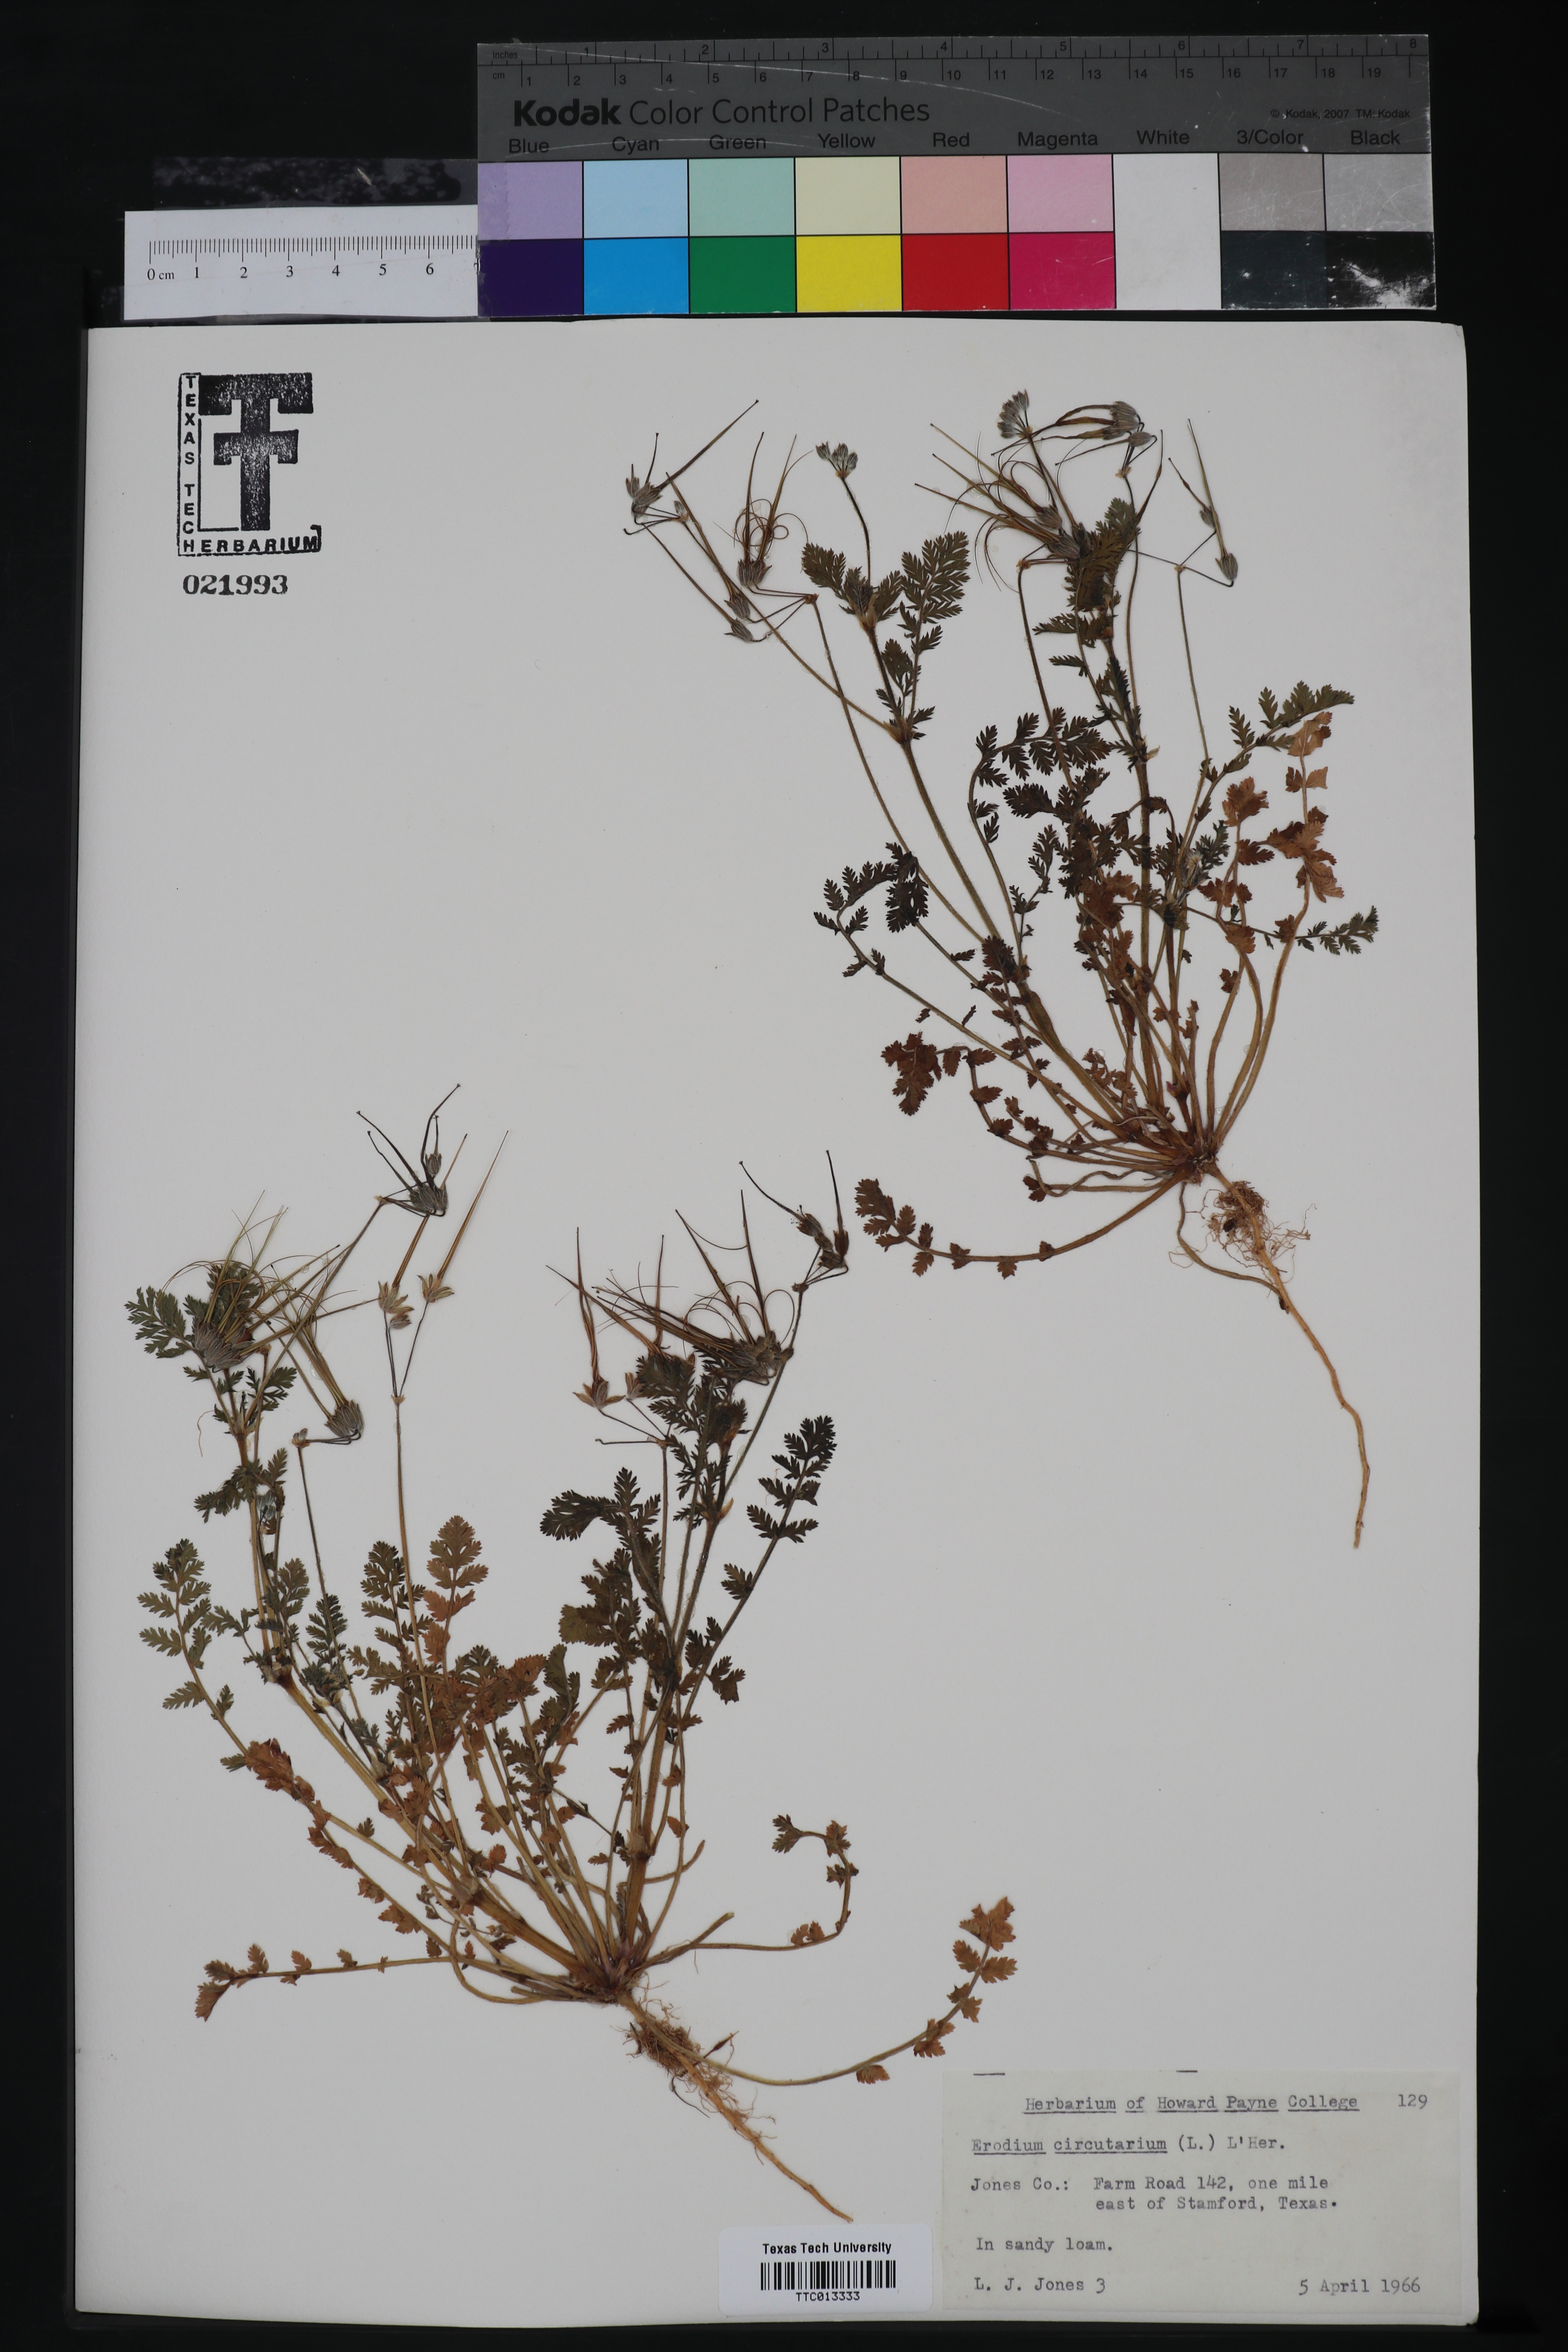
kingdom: Plantae
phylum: Tracheophyta
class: Magnoliopsida
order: Geraniales
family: Geraniaceae
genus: Erodium
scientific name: Erodium
